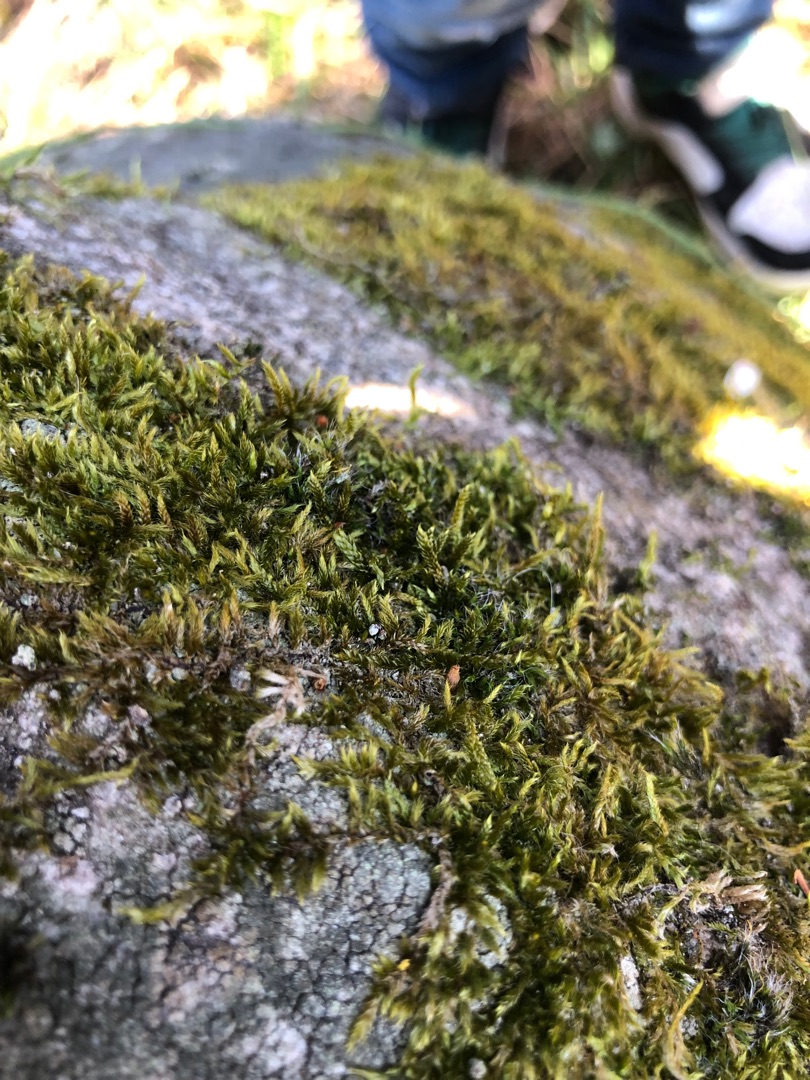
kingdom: Plantae
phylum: Bryophyta
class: Bryopsida
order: Hypnales
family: Hypnaceae
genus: Hypnum
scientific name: Hypnum
